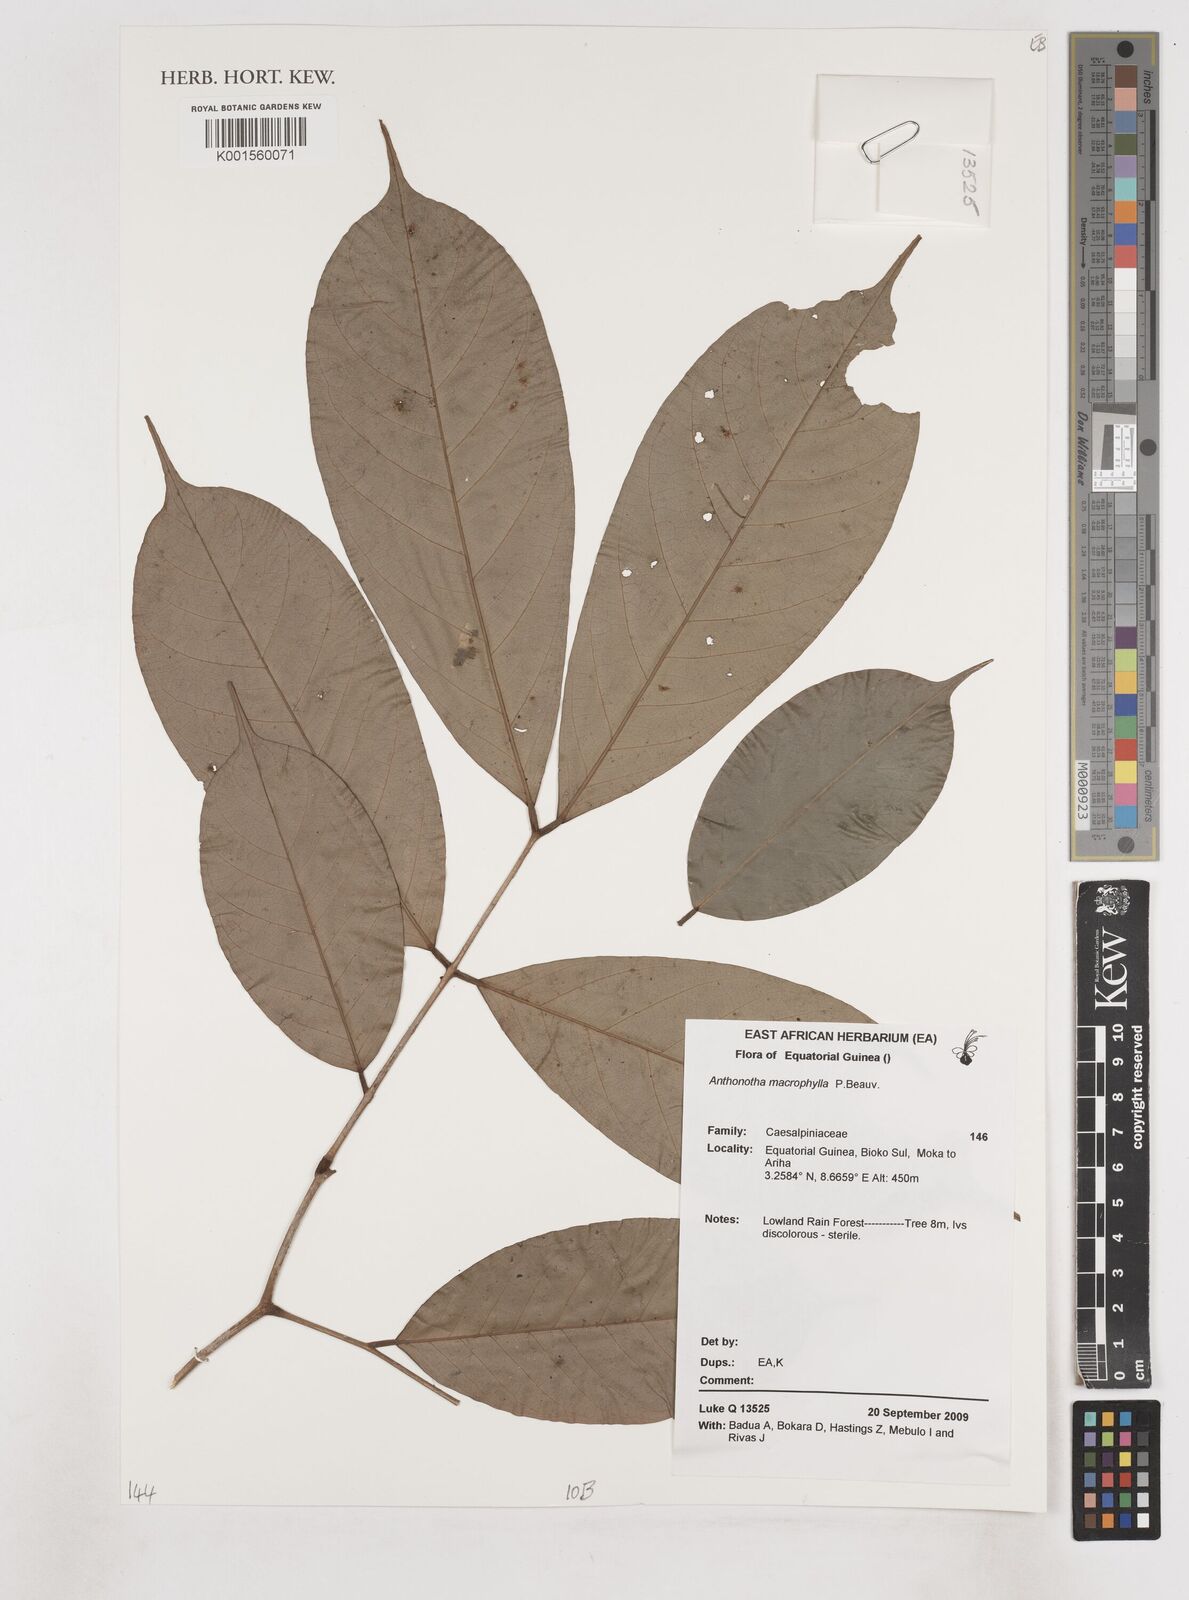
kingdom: Plantae
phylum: Tracheophyta
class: Magnoliopsida
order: Fabales
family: Fabaceae
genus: Anthonotha
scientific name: Anthonotha macrophylla
